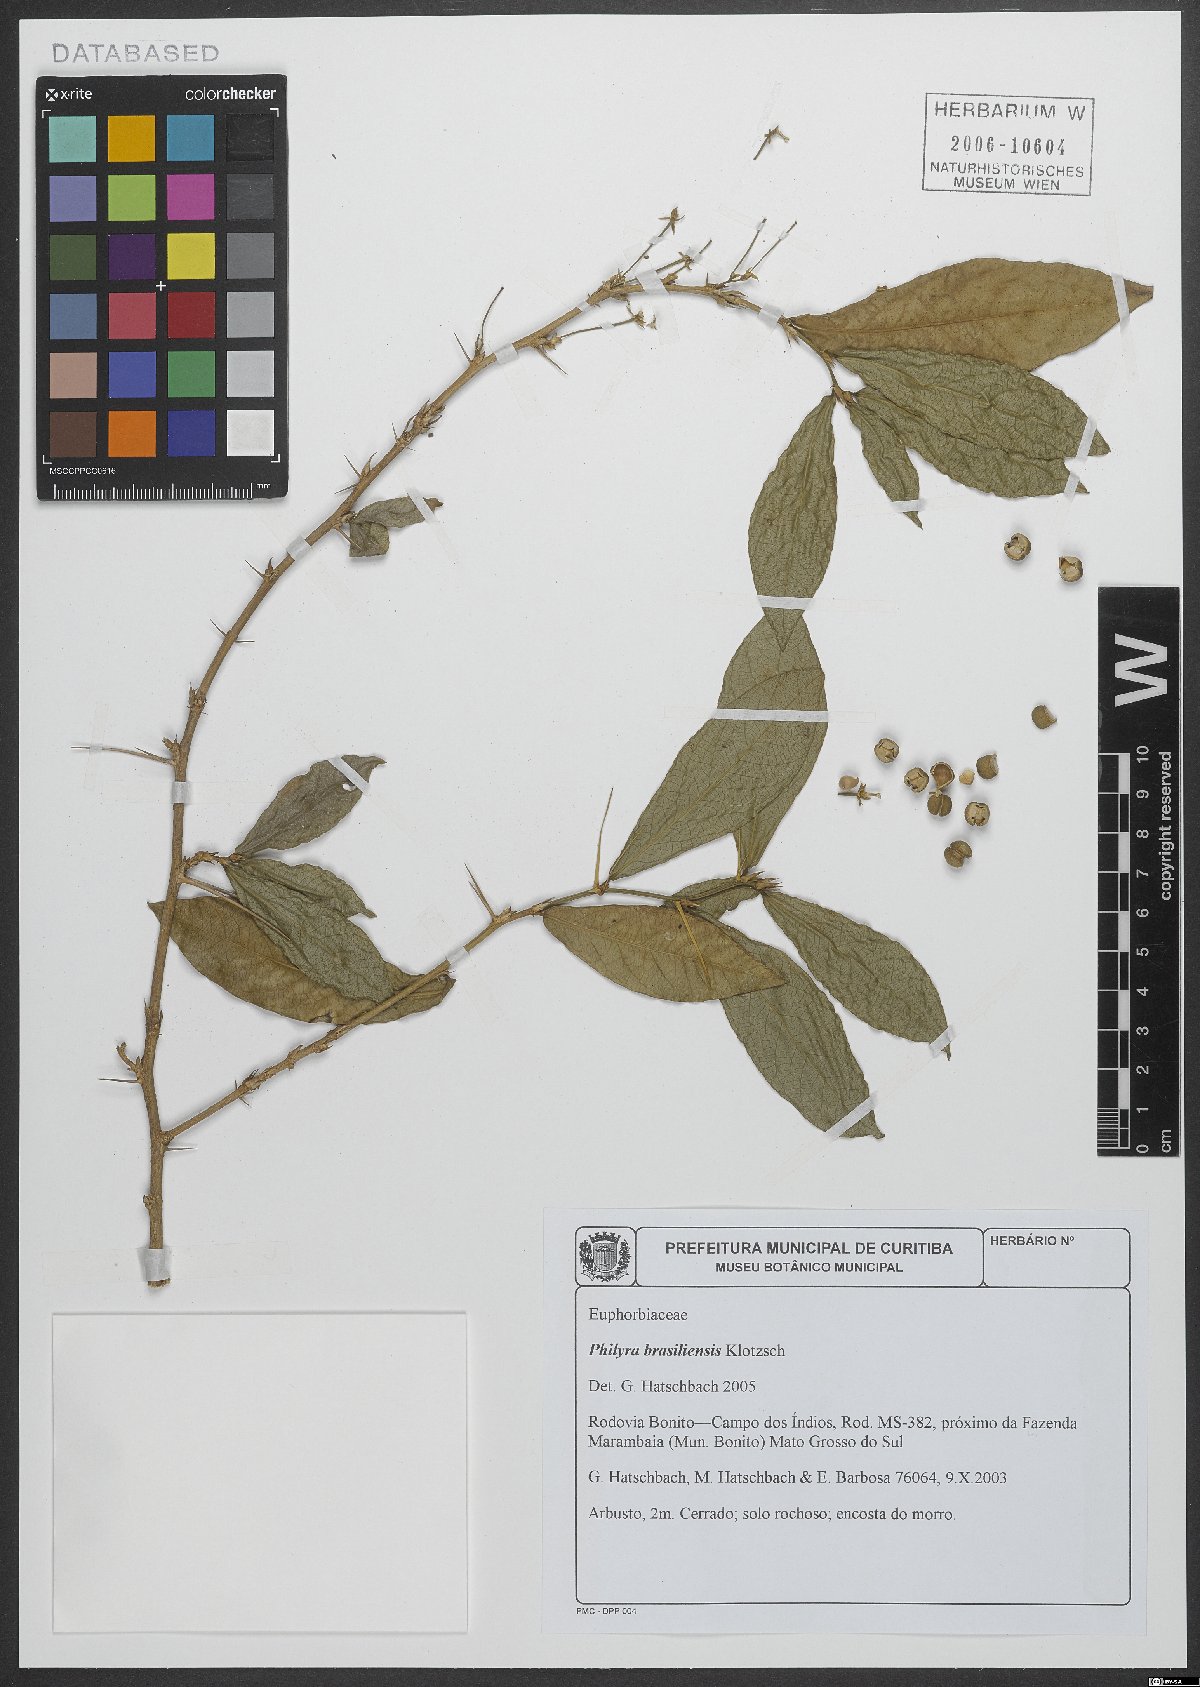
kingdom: Plantae
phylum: Tracheophyta
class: Magnoliopsida
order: Malpighiales
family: Euphorbiaceae
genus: Philyra
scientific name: Philyra brasiliensis
